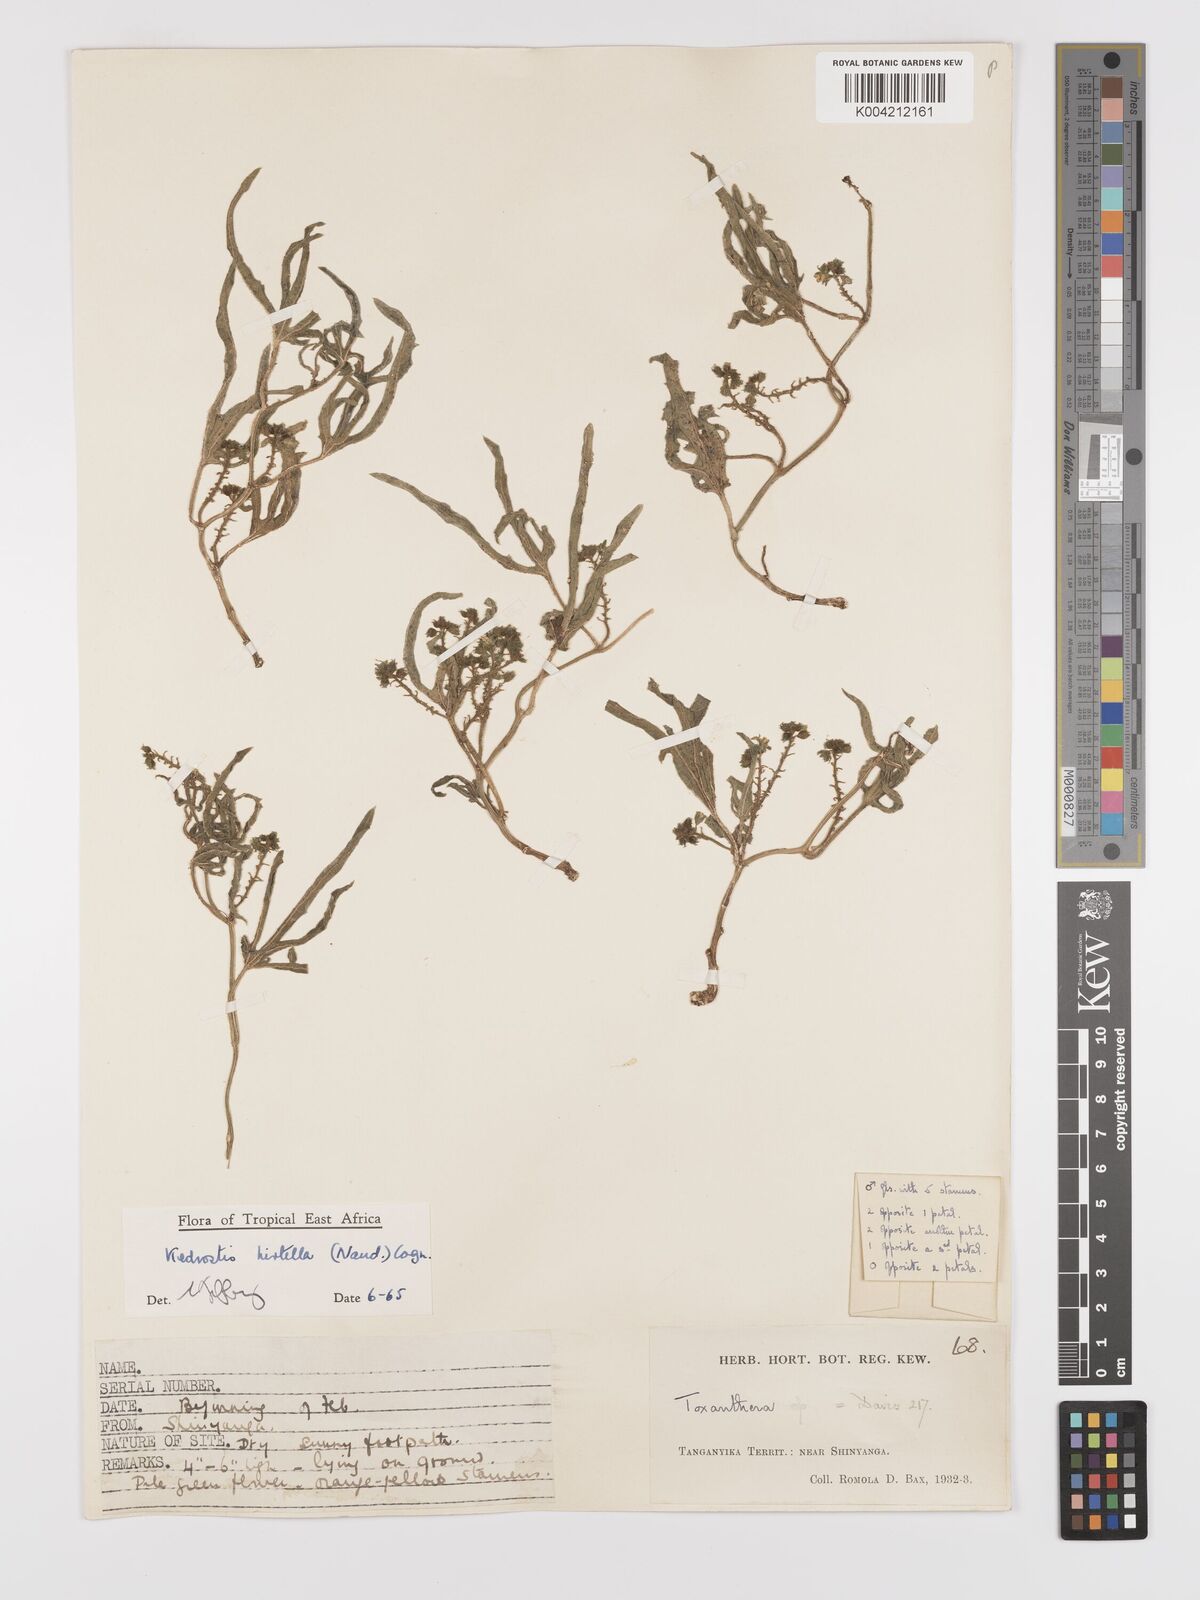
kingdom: Plantae
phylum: Tracheophyta
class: Magnoliopsida
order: Cucurbitales
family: Cucurbitaceae
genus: Kedrostis
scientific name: Kedrostis leloja
